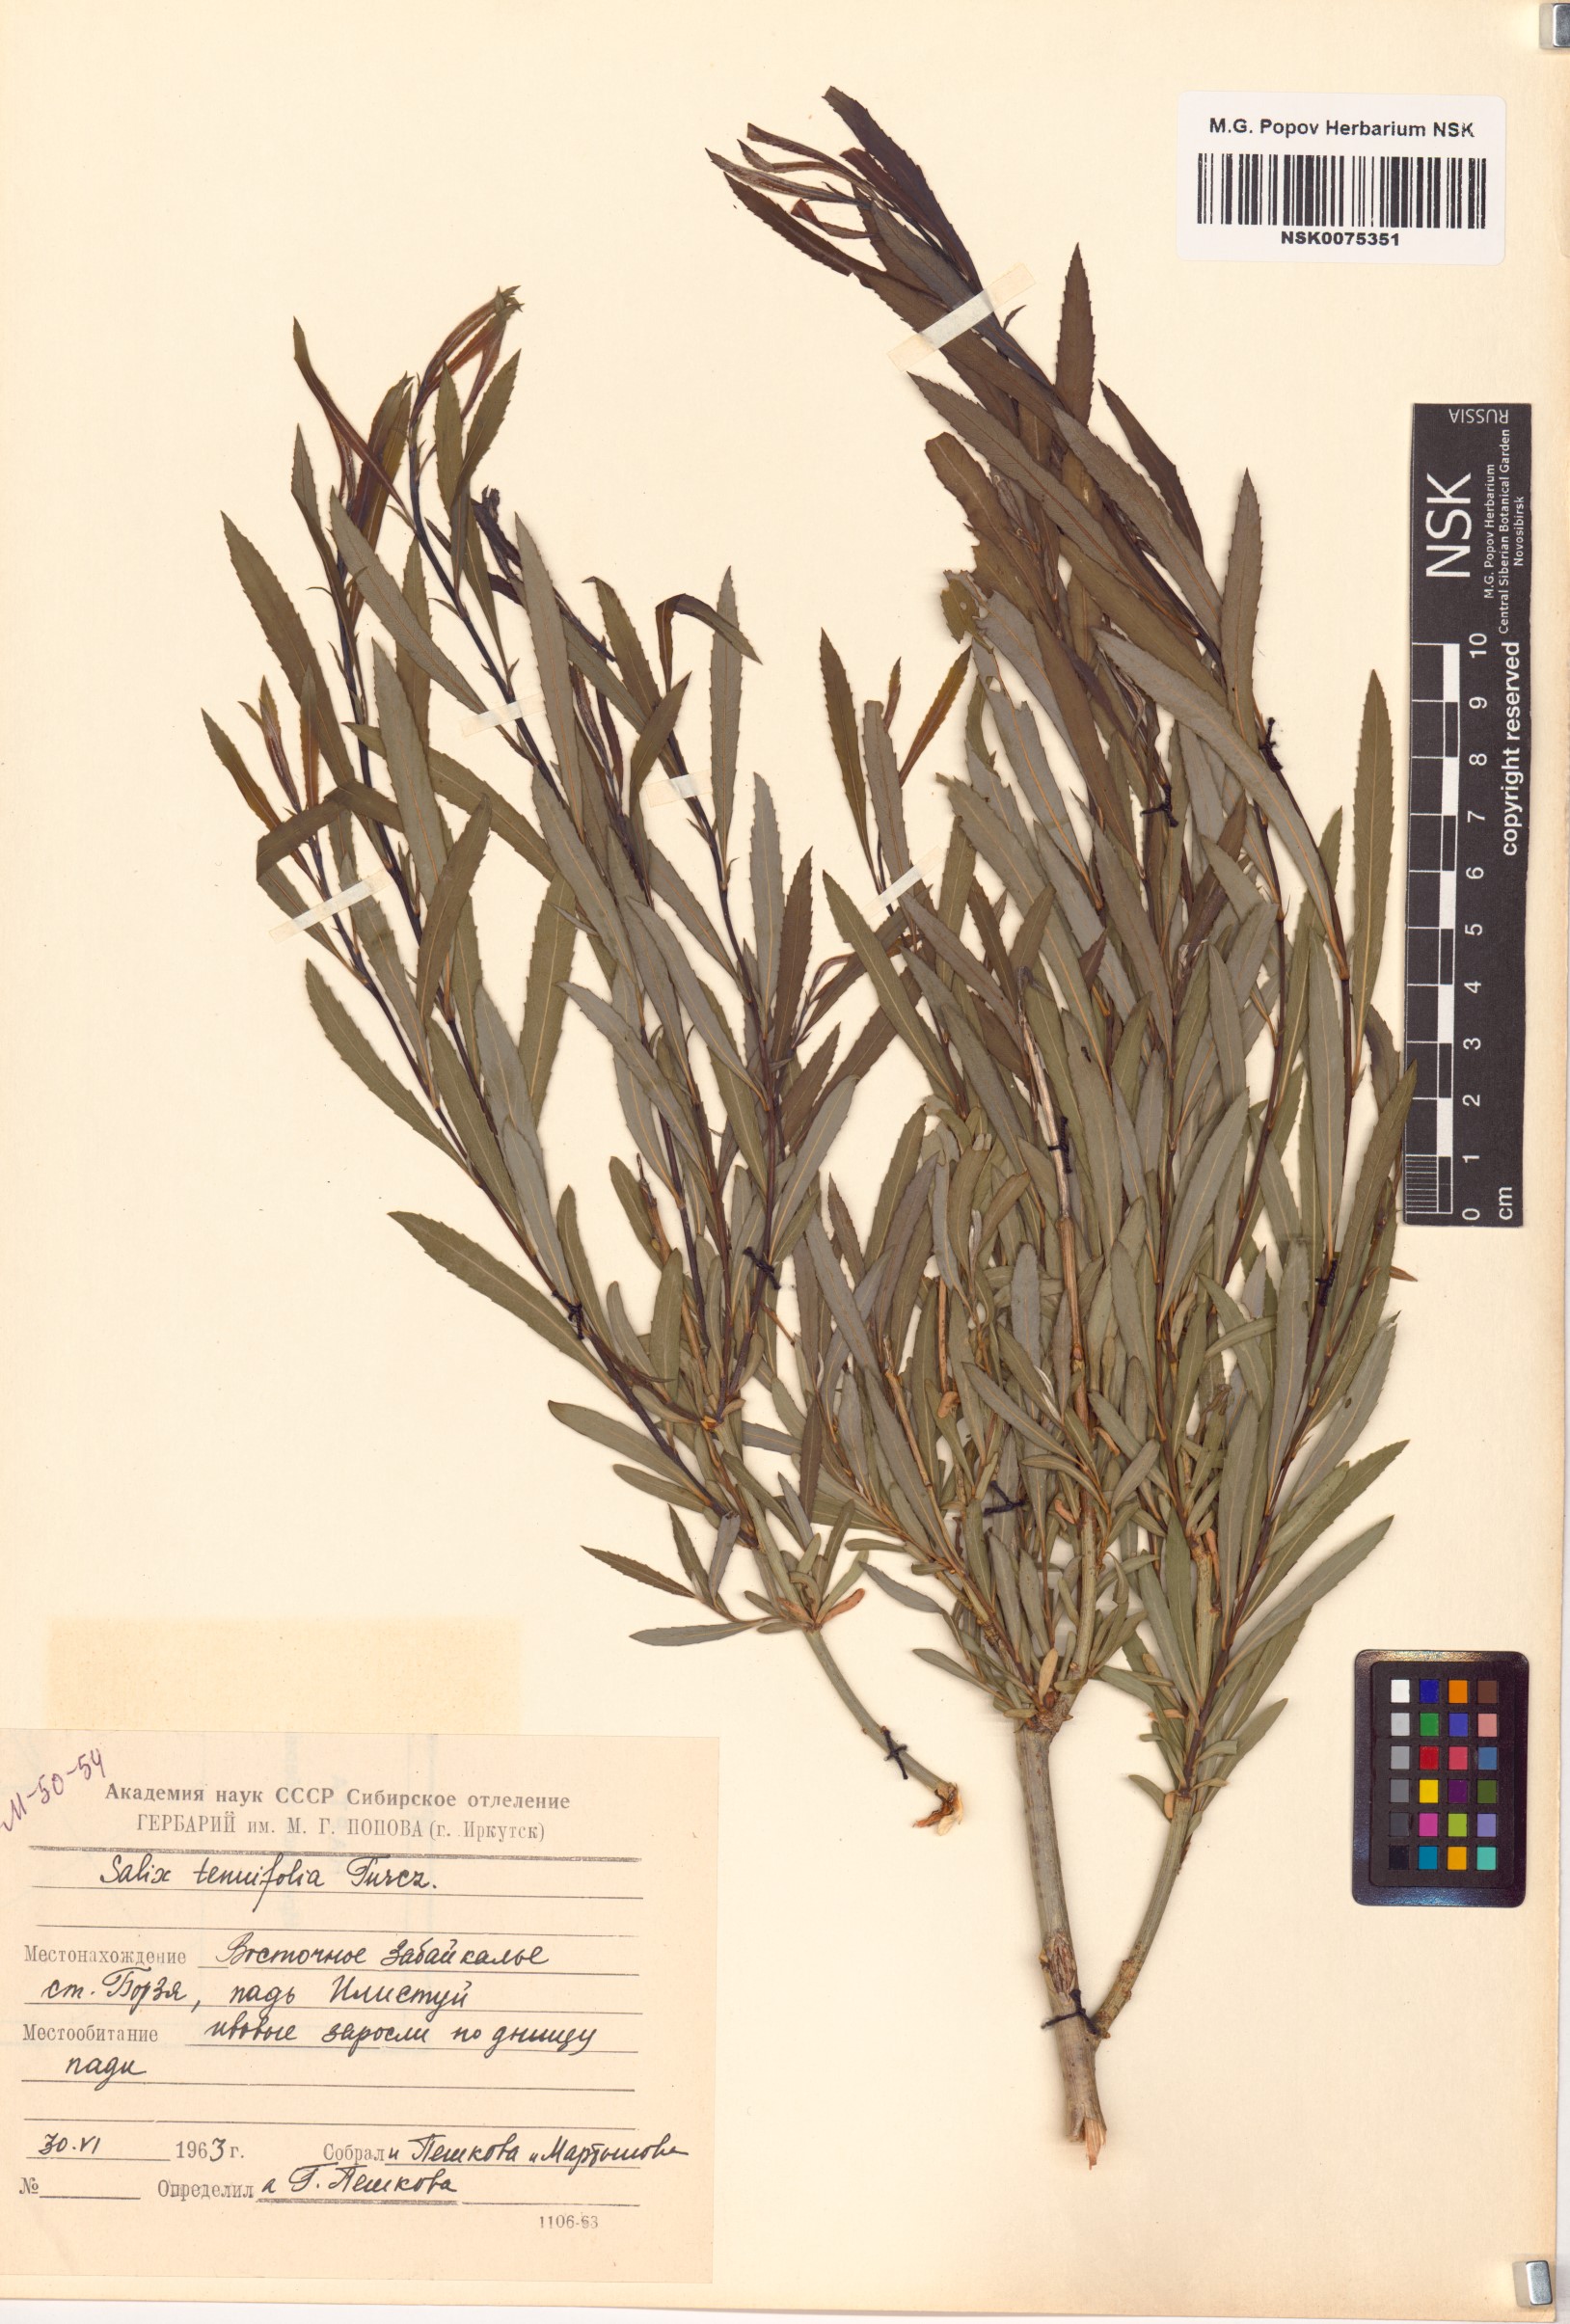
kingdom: Plantae
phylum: Tracheophyta
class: Magnoliopsida
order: Malpighiales
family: Salicaceae
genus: Salix
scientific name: Salix
